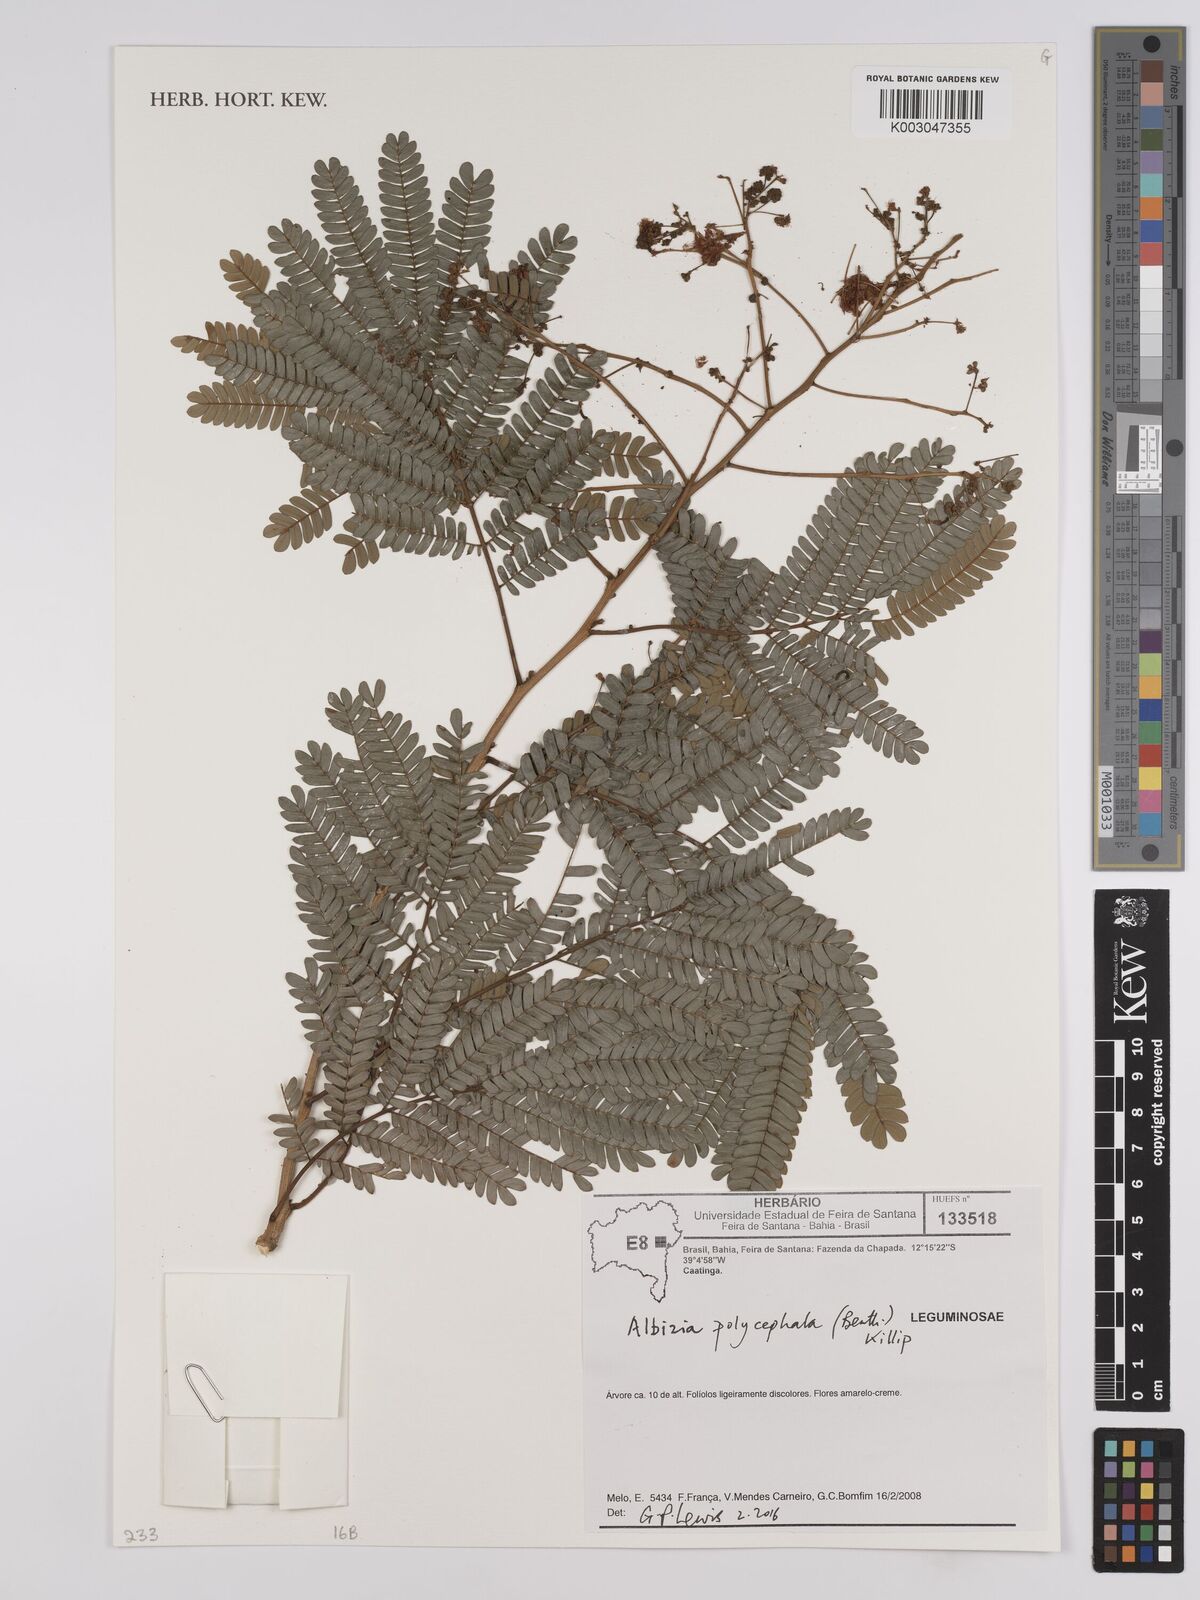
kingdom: Plantae
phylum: Tracheophyta
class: Magnoliopsida
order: Fabales
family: Fabaceae
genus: Albizia
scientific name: Albizia polycephala
